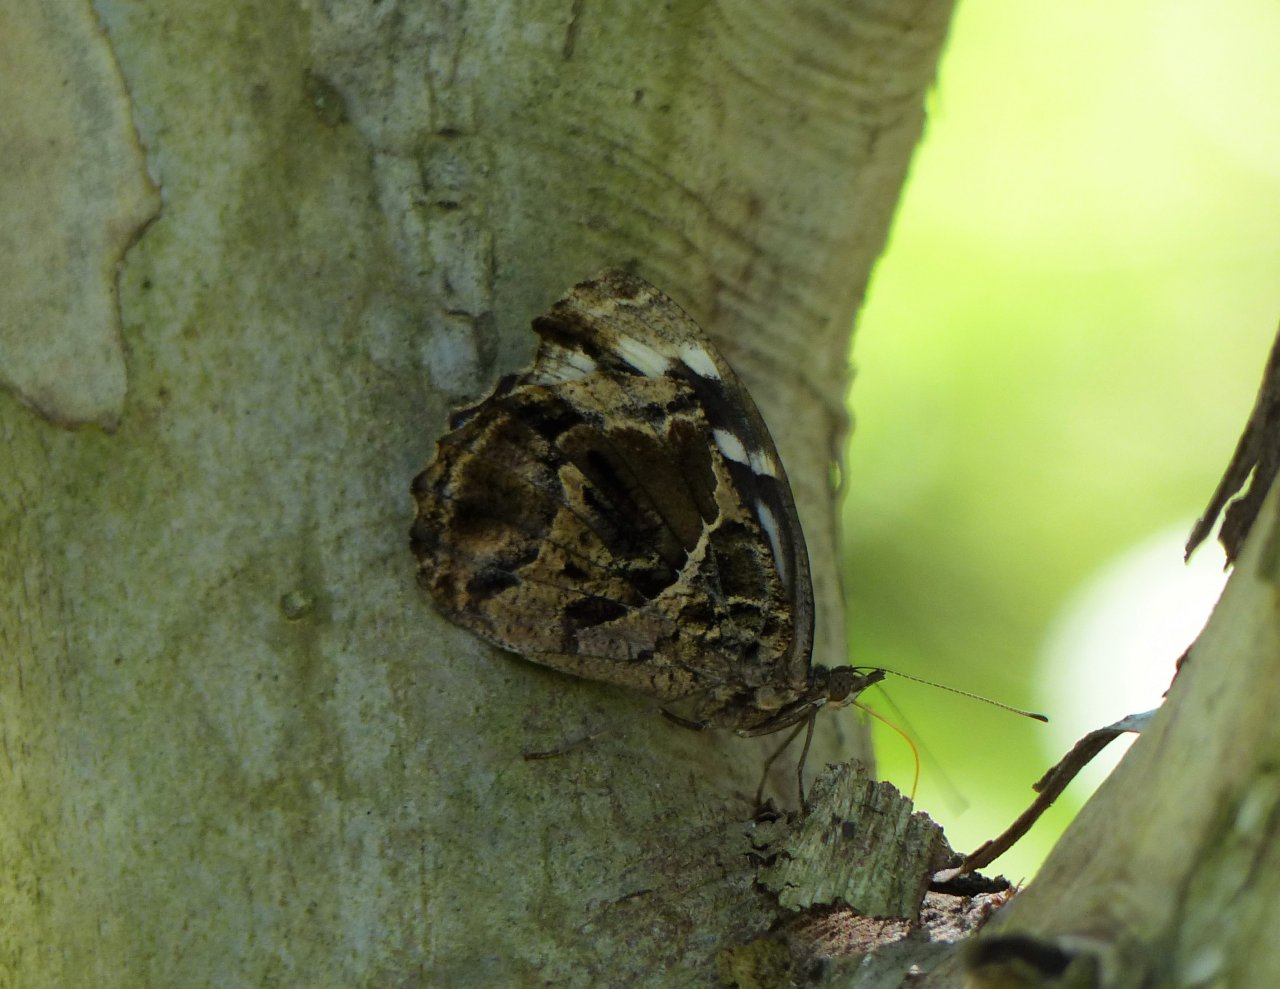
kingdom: Animalia
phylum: Arthropoda
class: Insecta
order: Lepidoptera
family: Nymphalidae
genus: Myscelia
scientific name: Myscelia ethusa
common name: Mexican Bluewing
